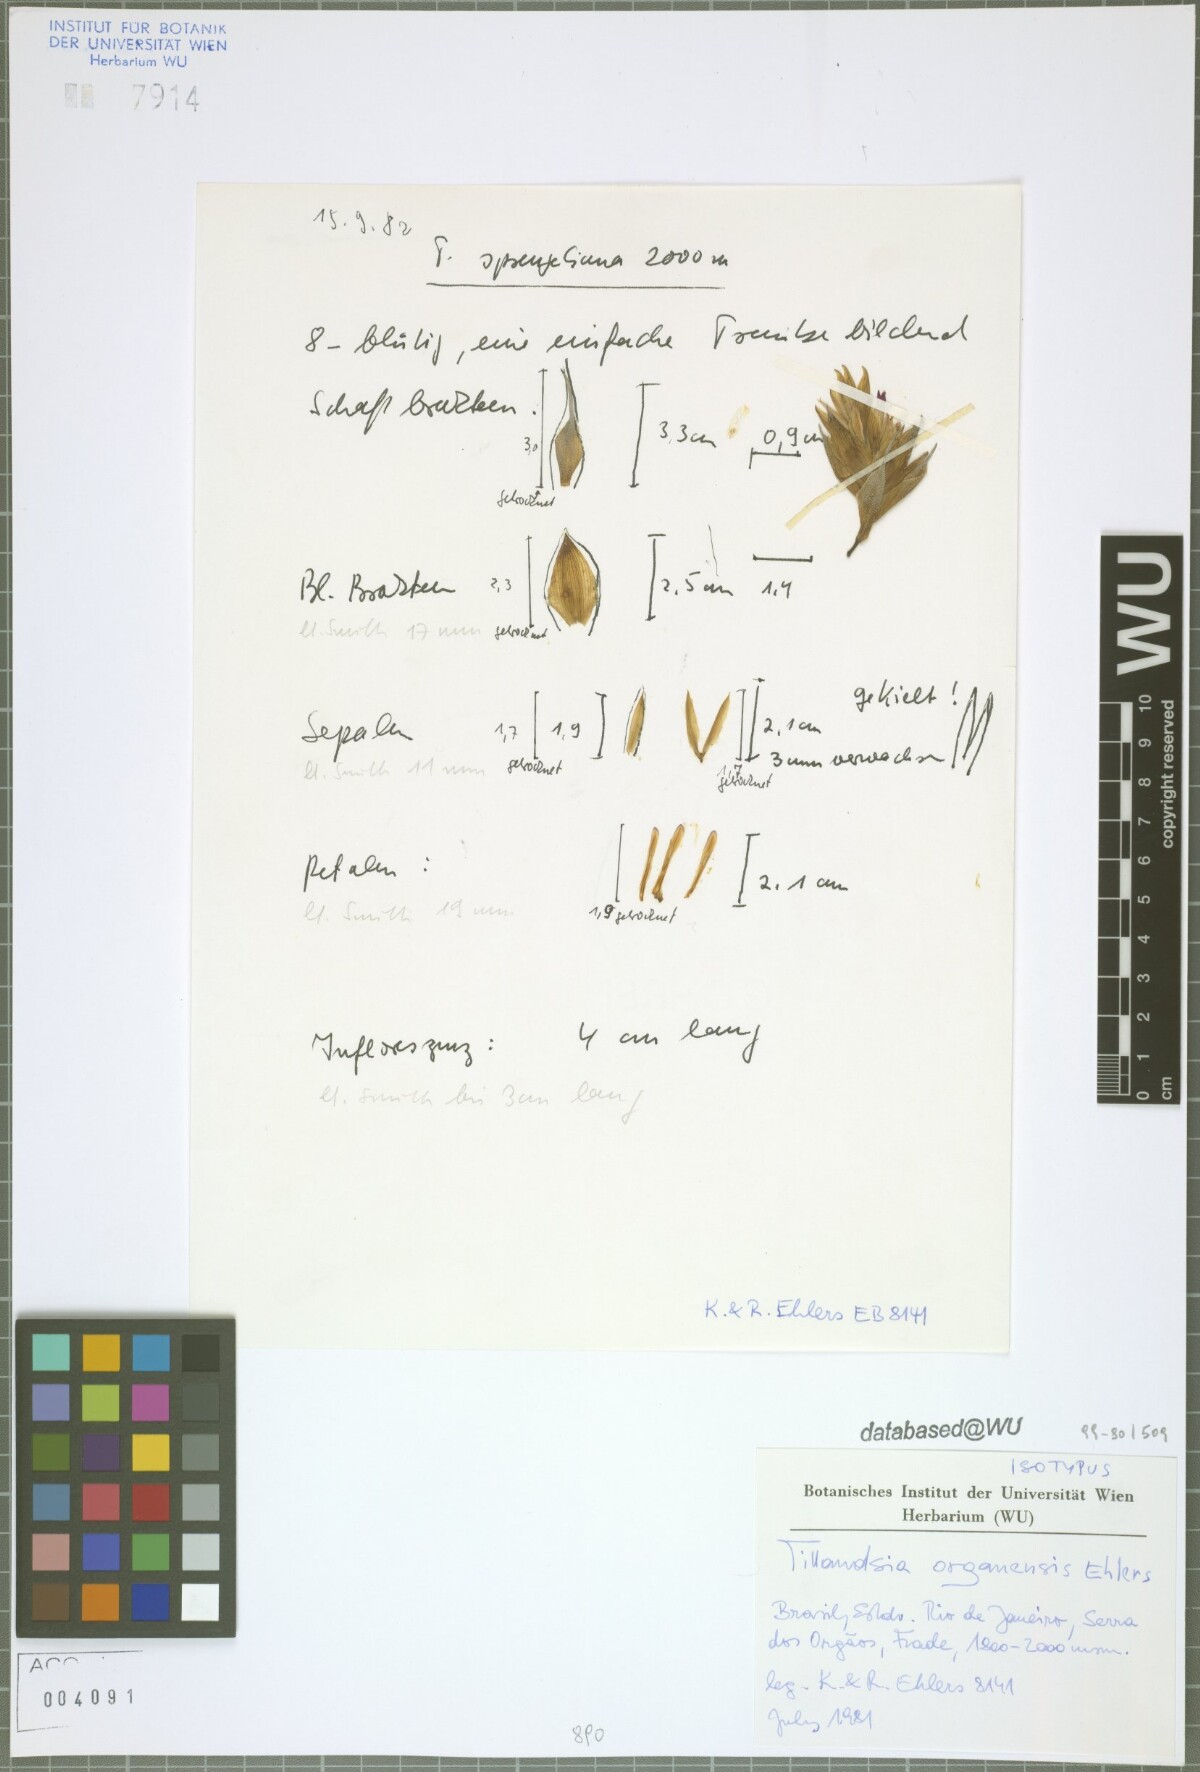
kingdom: Plantae
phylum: Tracheophyta
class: Liliopsida
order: Poales
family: Bromeliaceae
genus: Tillandsia
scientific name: Tillandsia organensis
